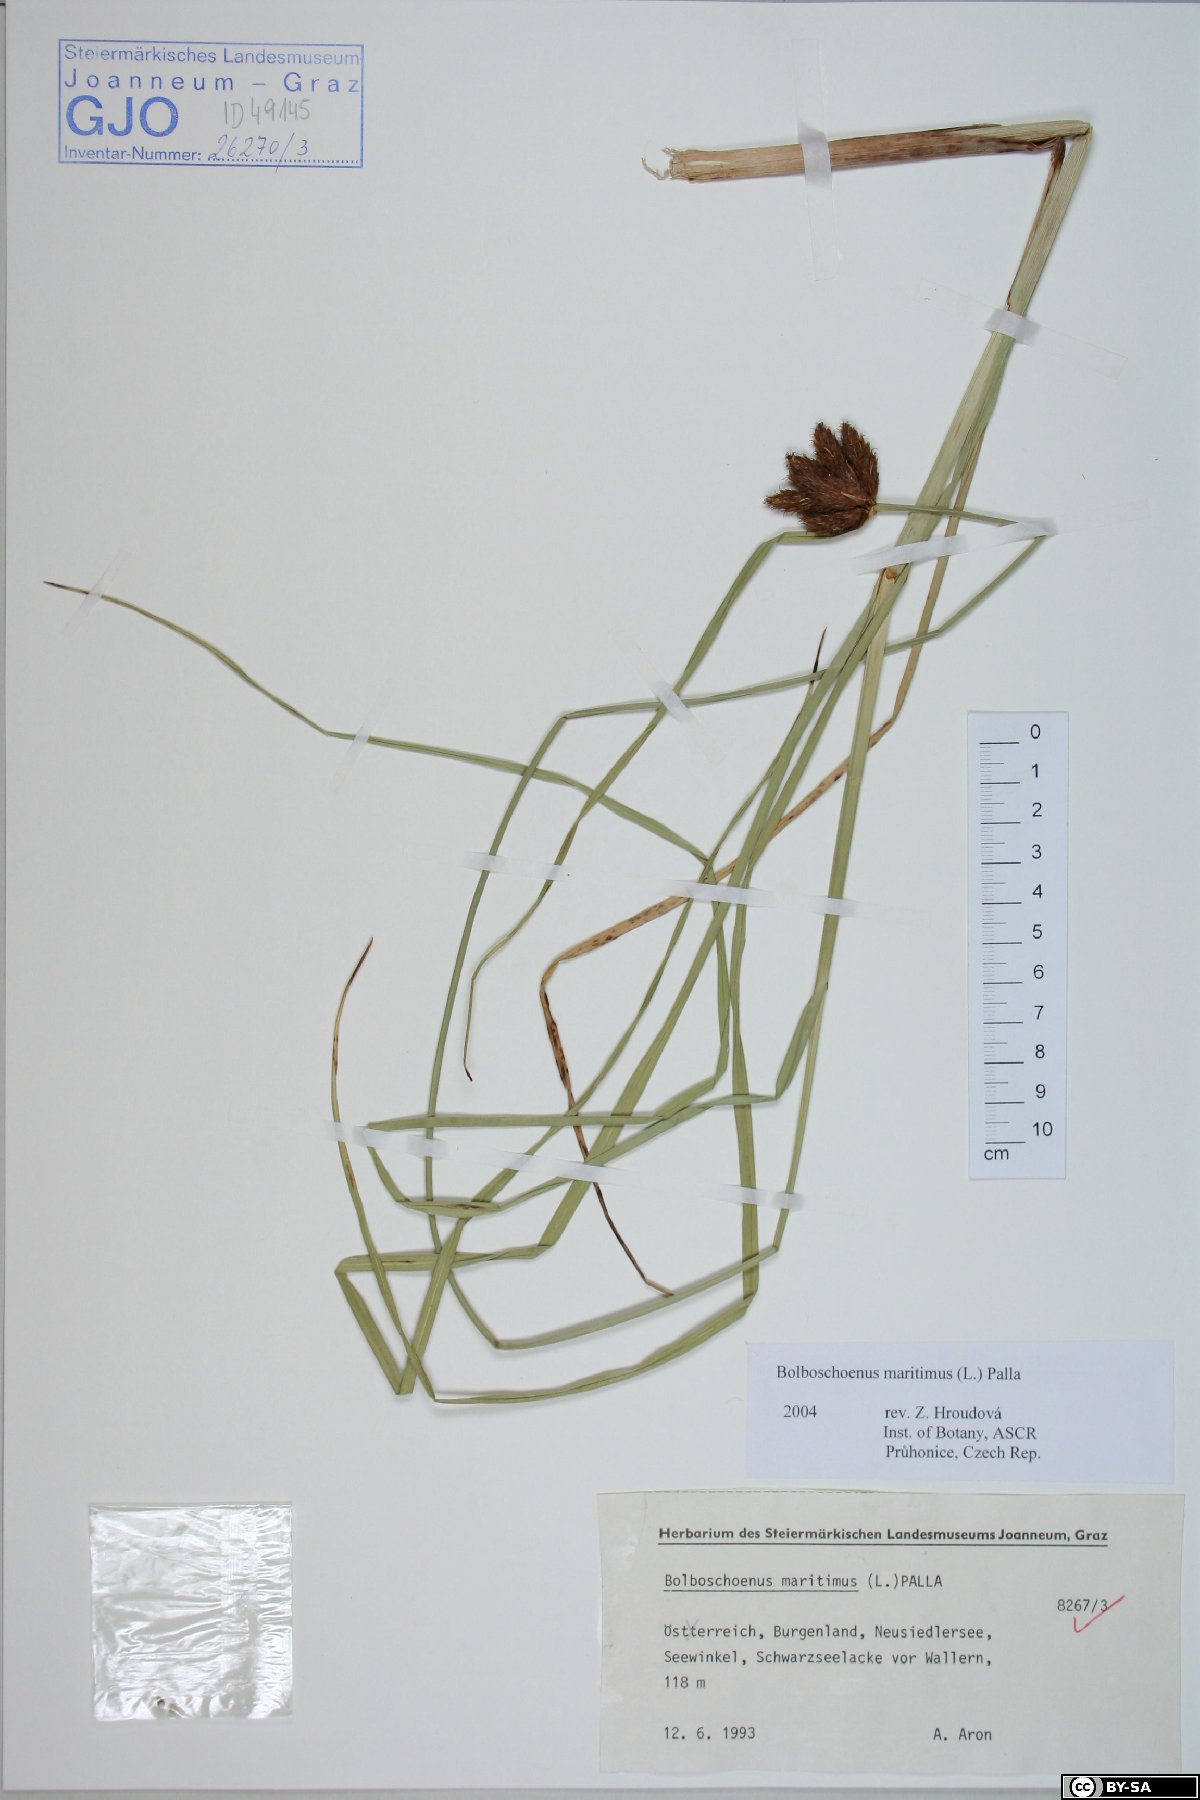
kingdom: Plantae
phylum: Tracheophyta
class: Liliopsida
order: Poales
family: Cyperaceae
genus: Bolboschoenus
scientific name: Bolboschoenus maritimus
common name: Sea club-rush
